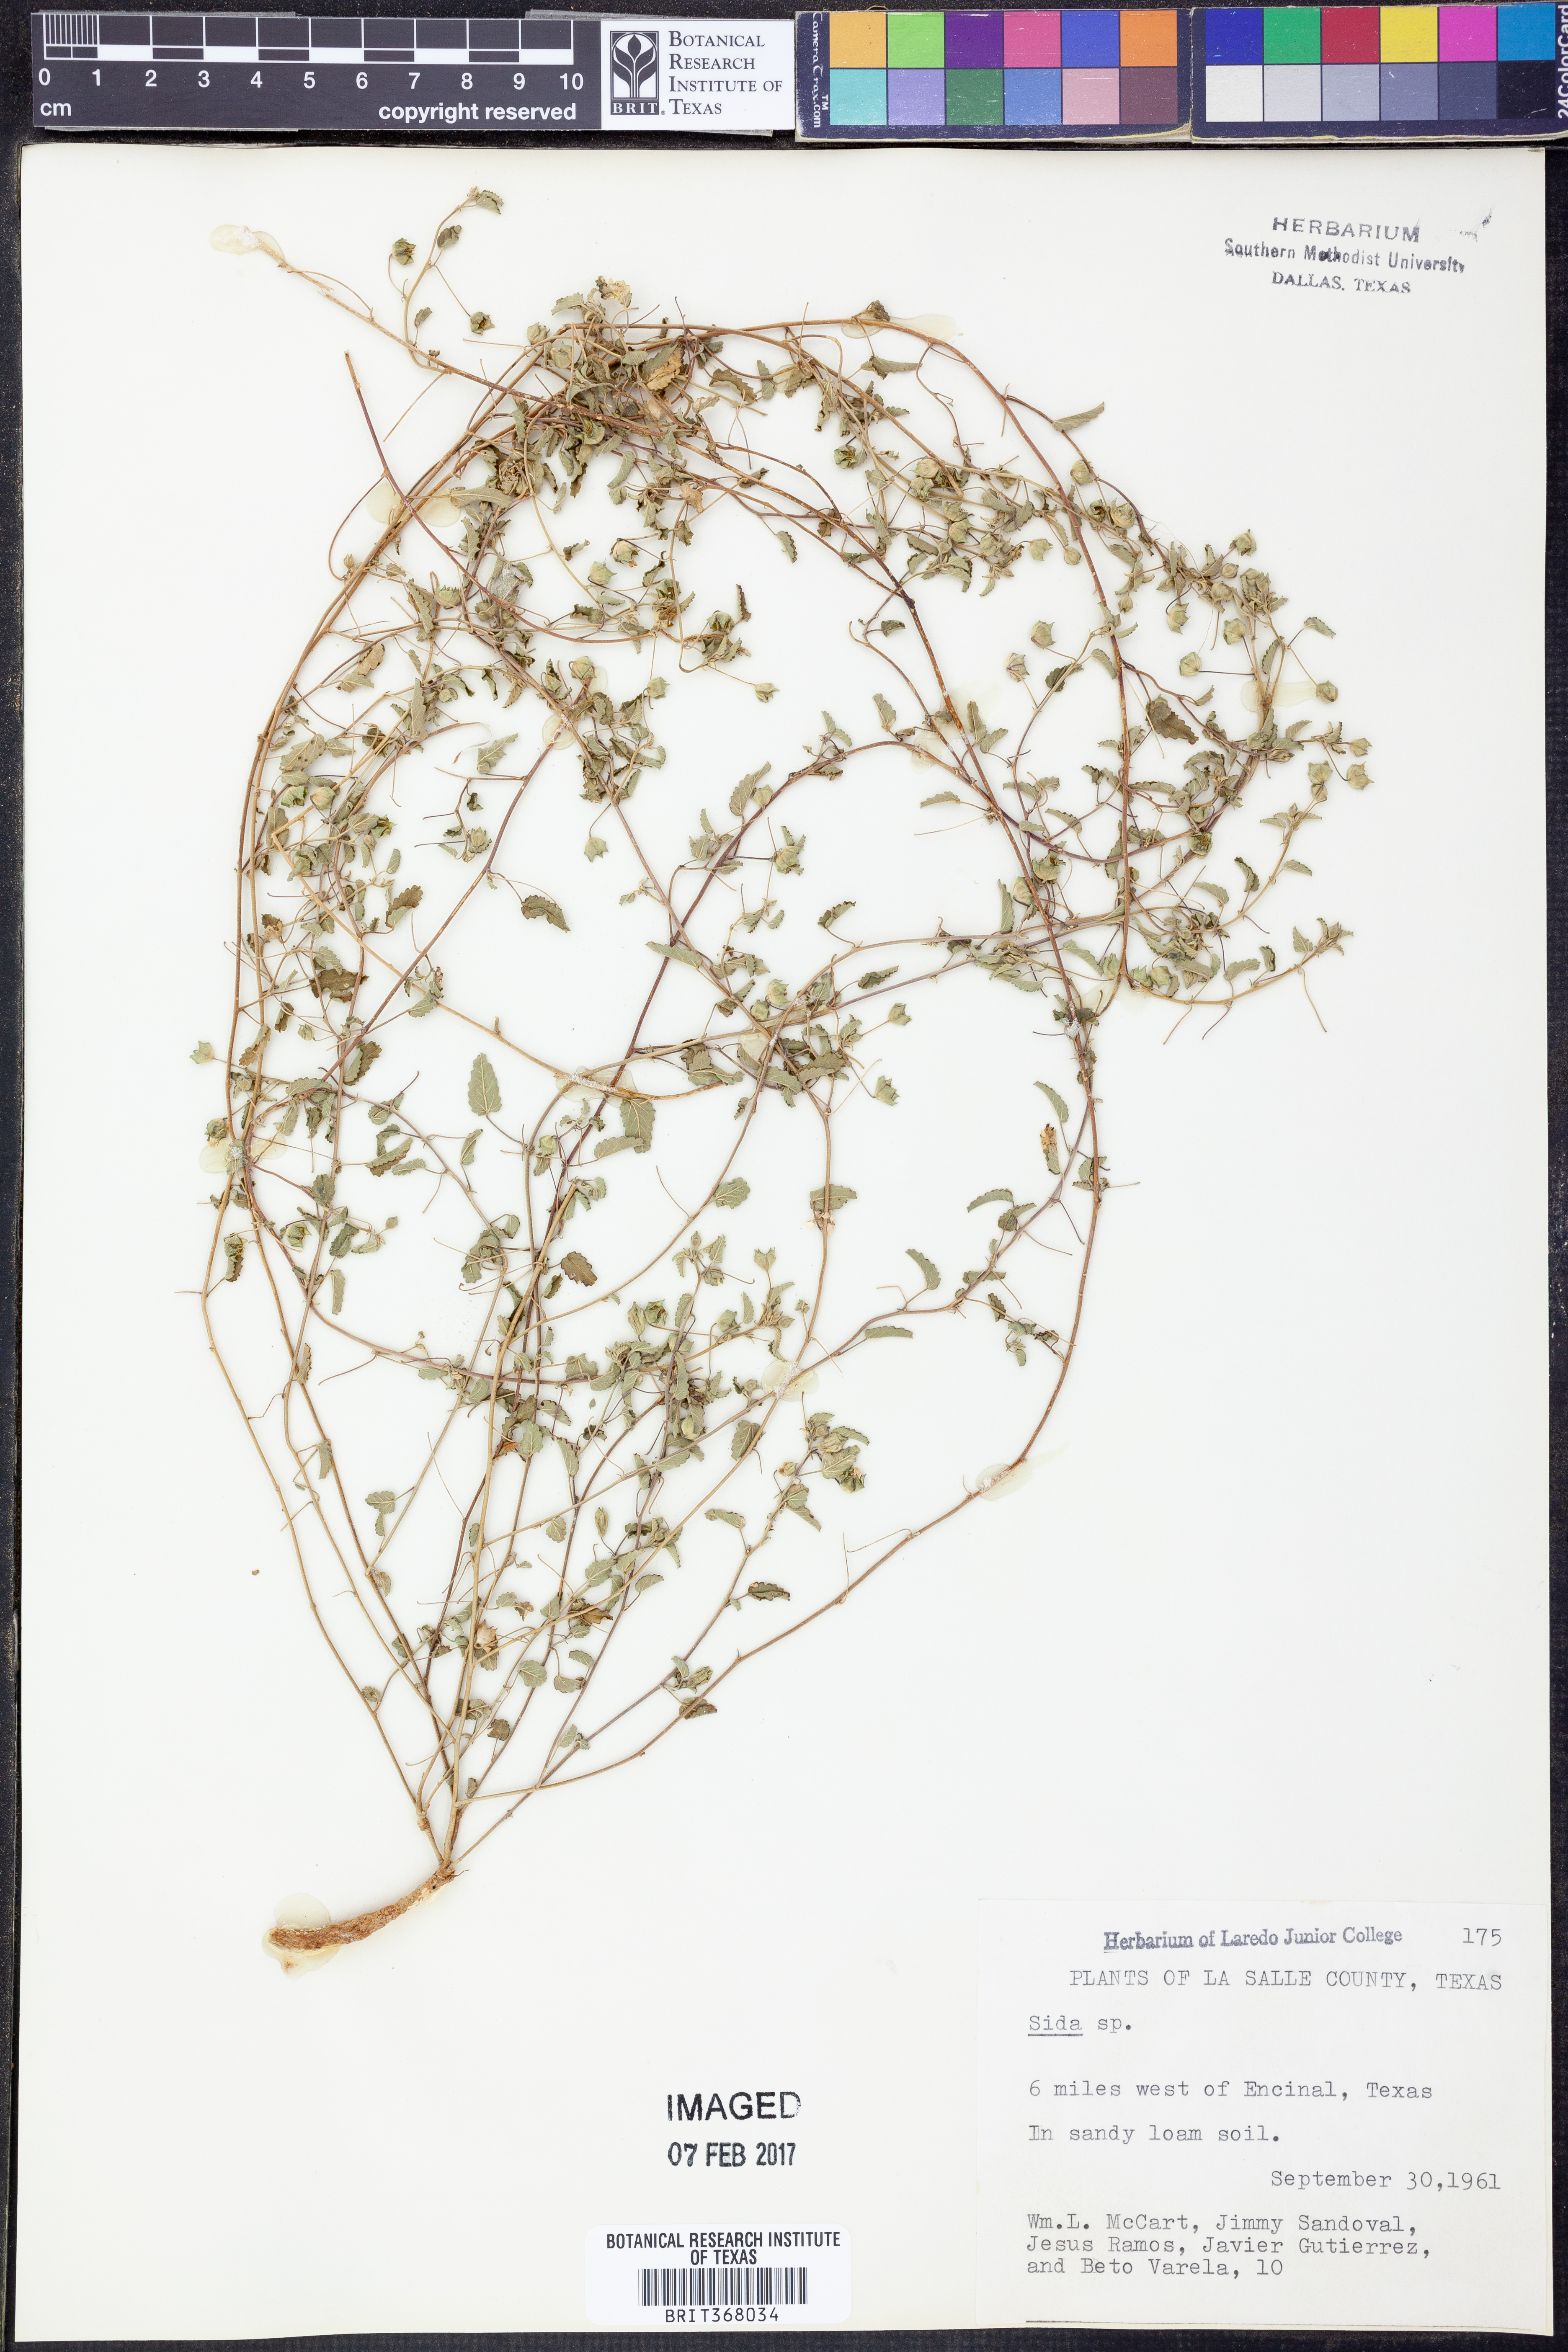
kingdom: Plantae
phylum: Tracheophyta
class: Magnoliopsida
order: Malvales
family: Malvaceae
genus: Sida
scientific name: Sida
